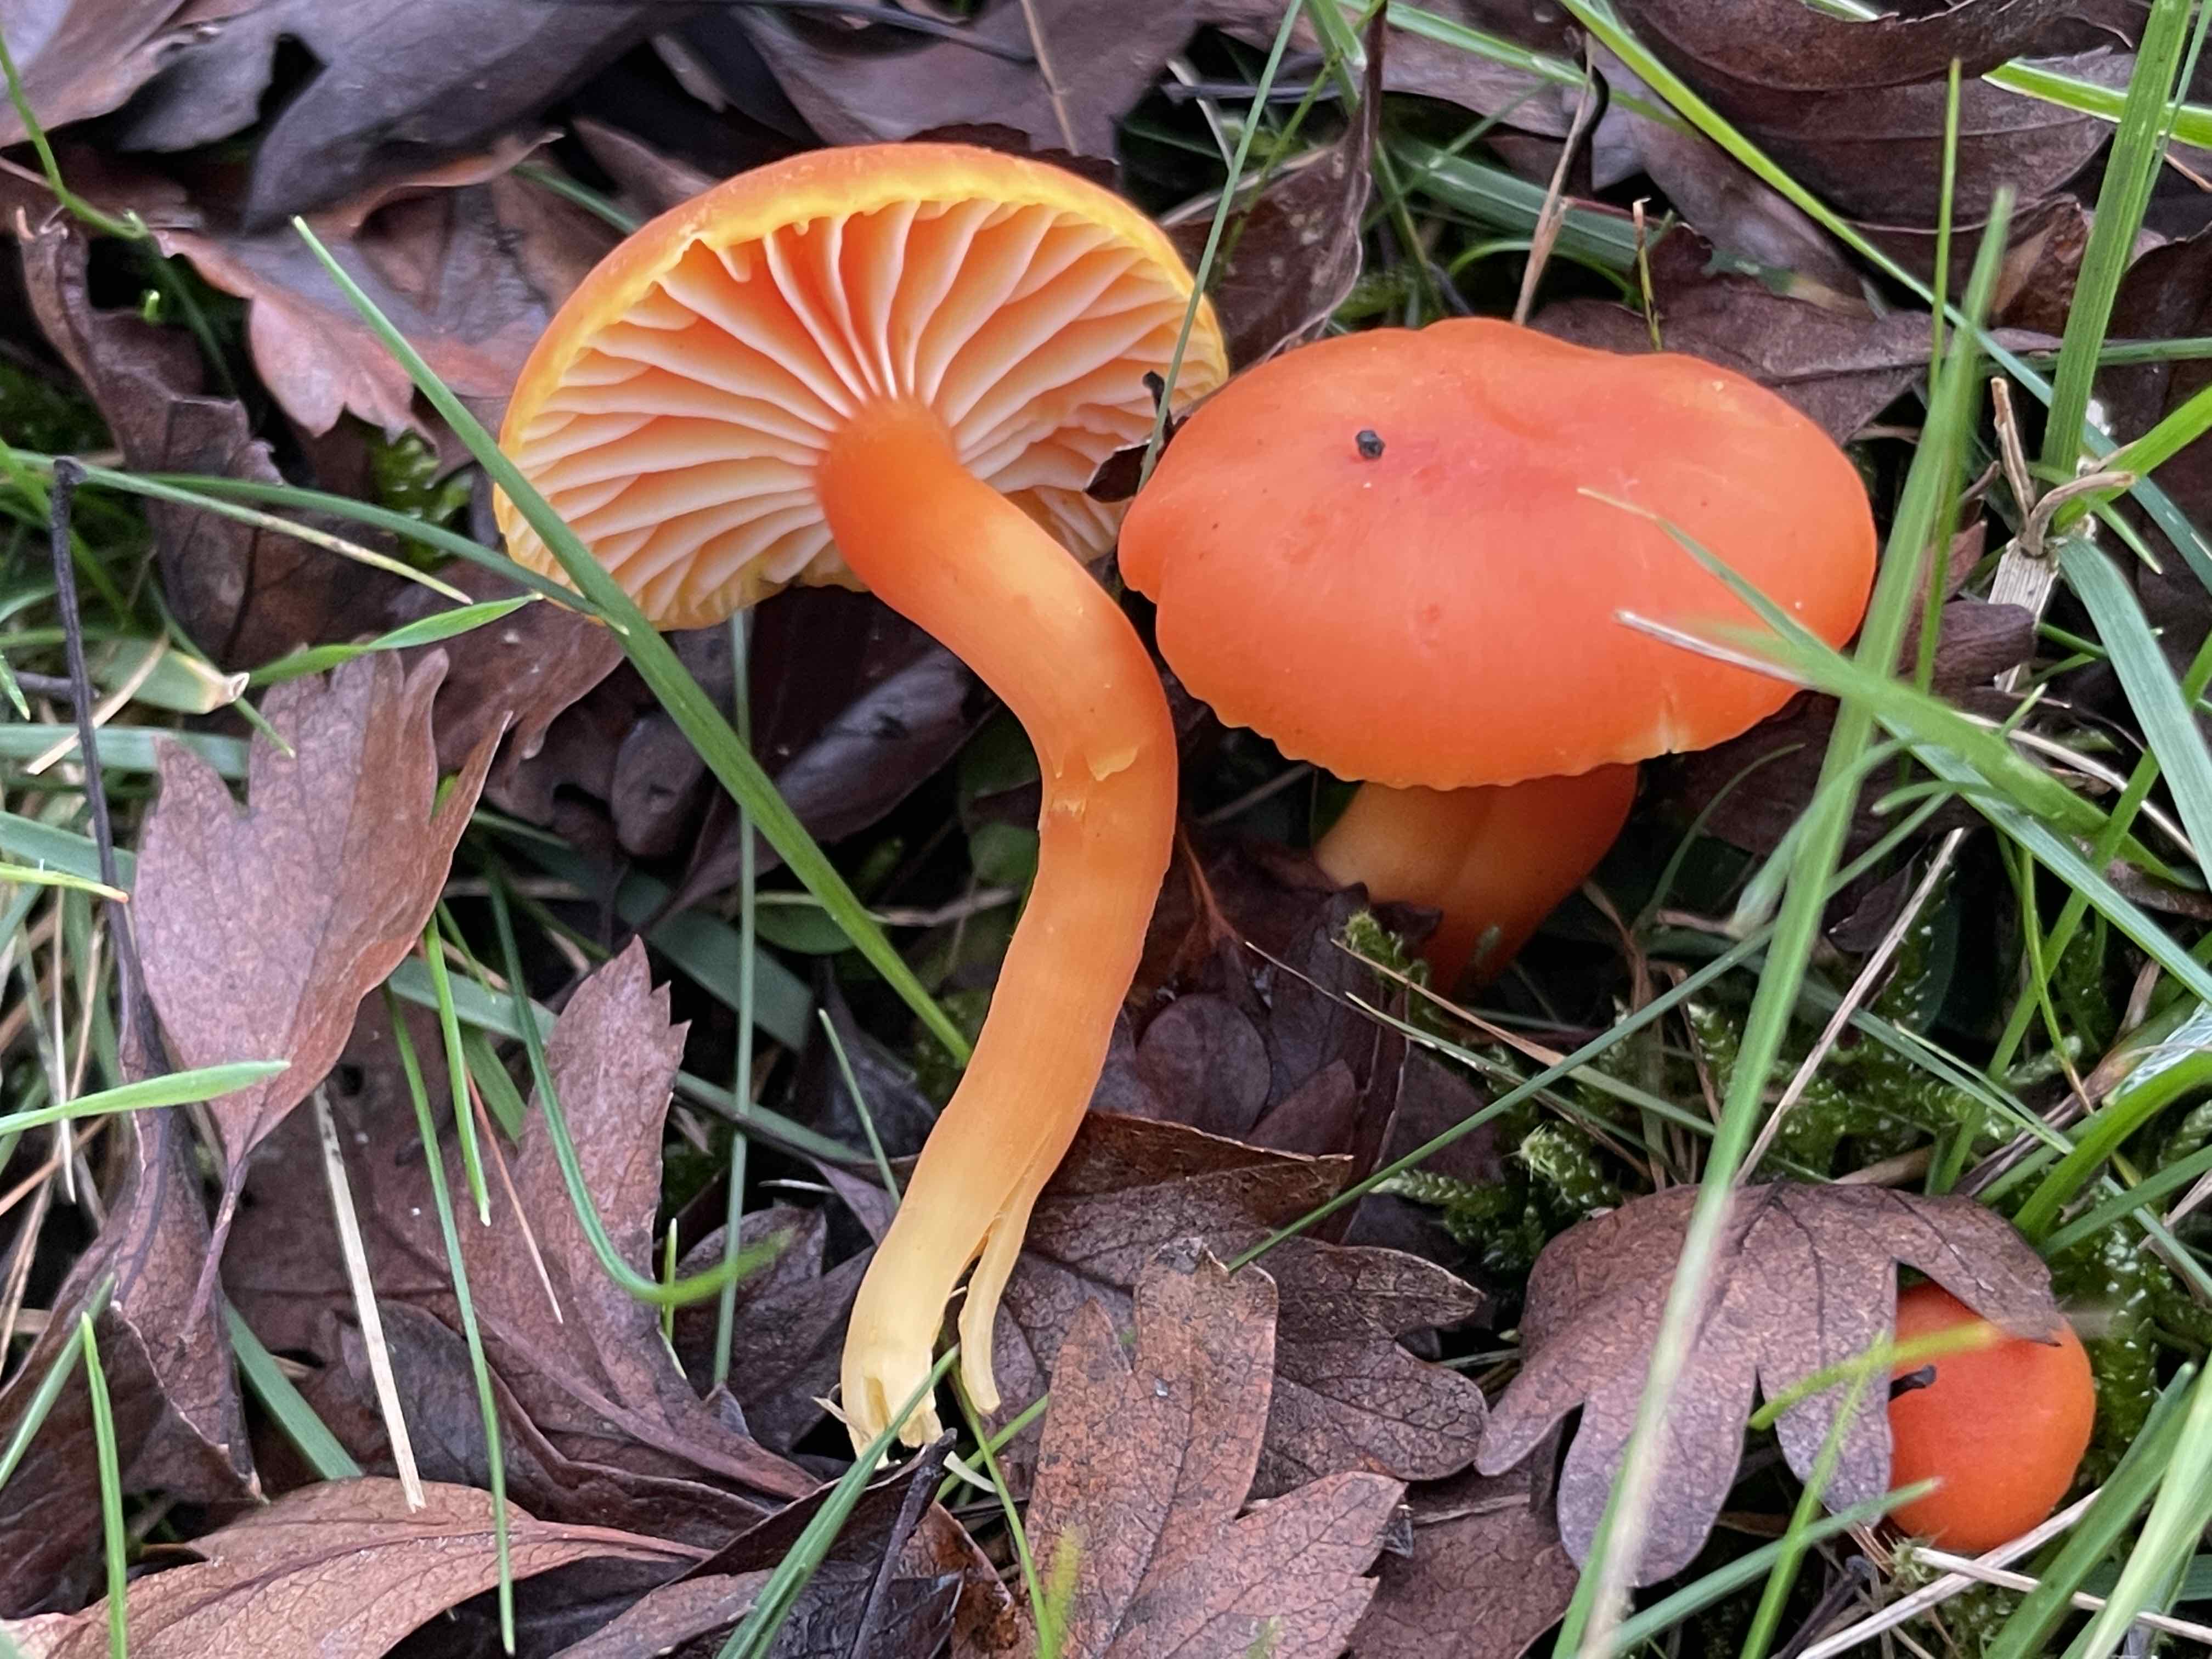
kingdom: Fungi
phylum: Basidiomycota
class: Agaricomycetes
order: Agaricales
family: Hygrophoraceae
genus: Hygrocybe
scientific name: Hygrocybe reidii
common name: honning-vokshat
